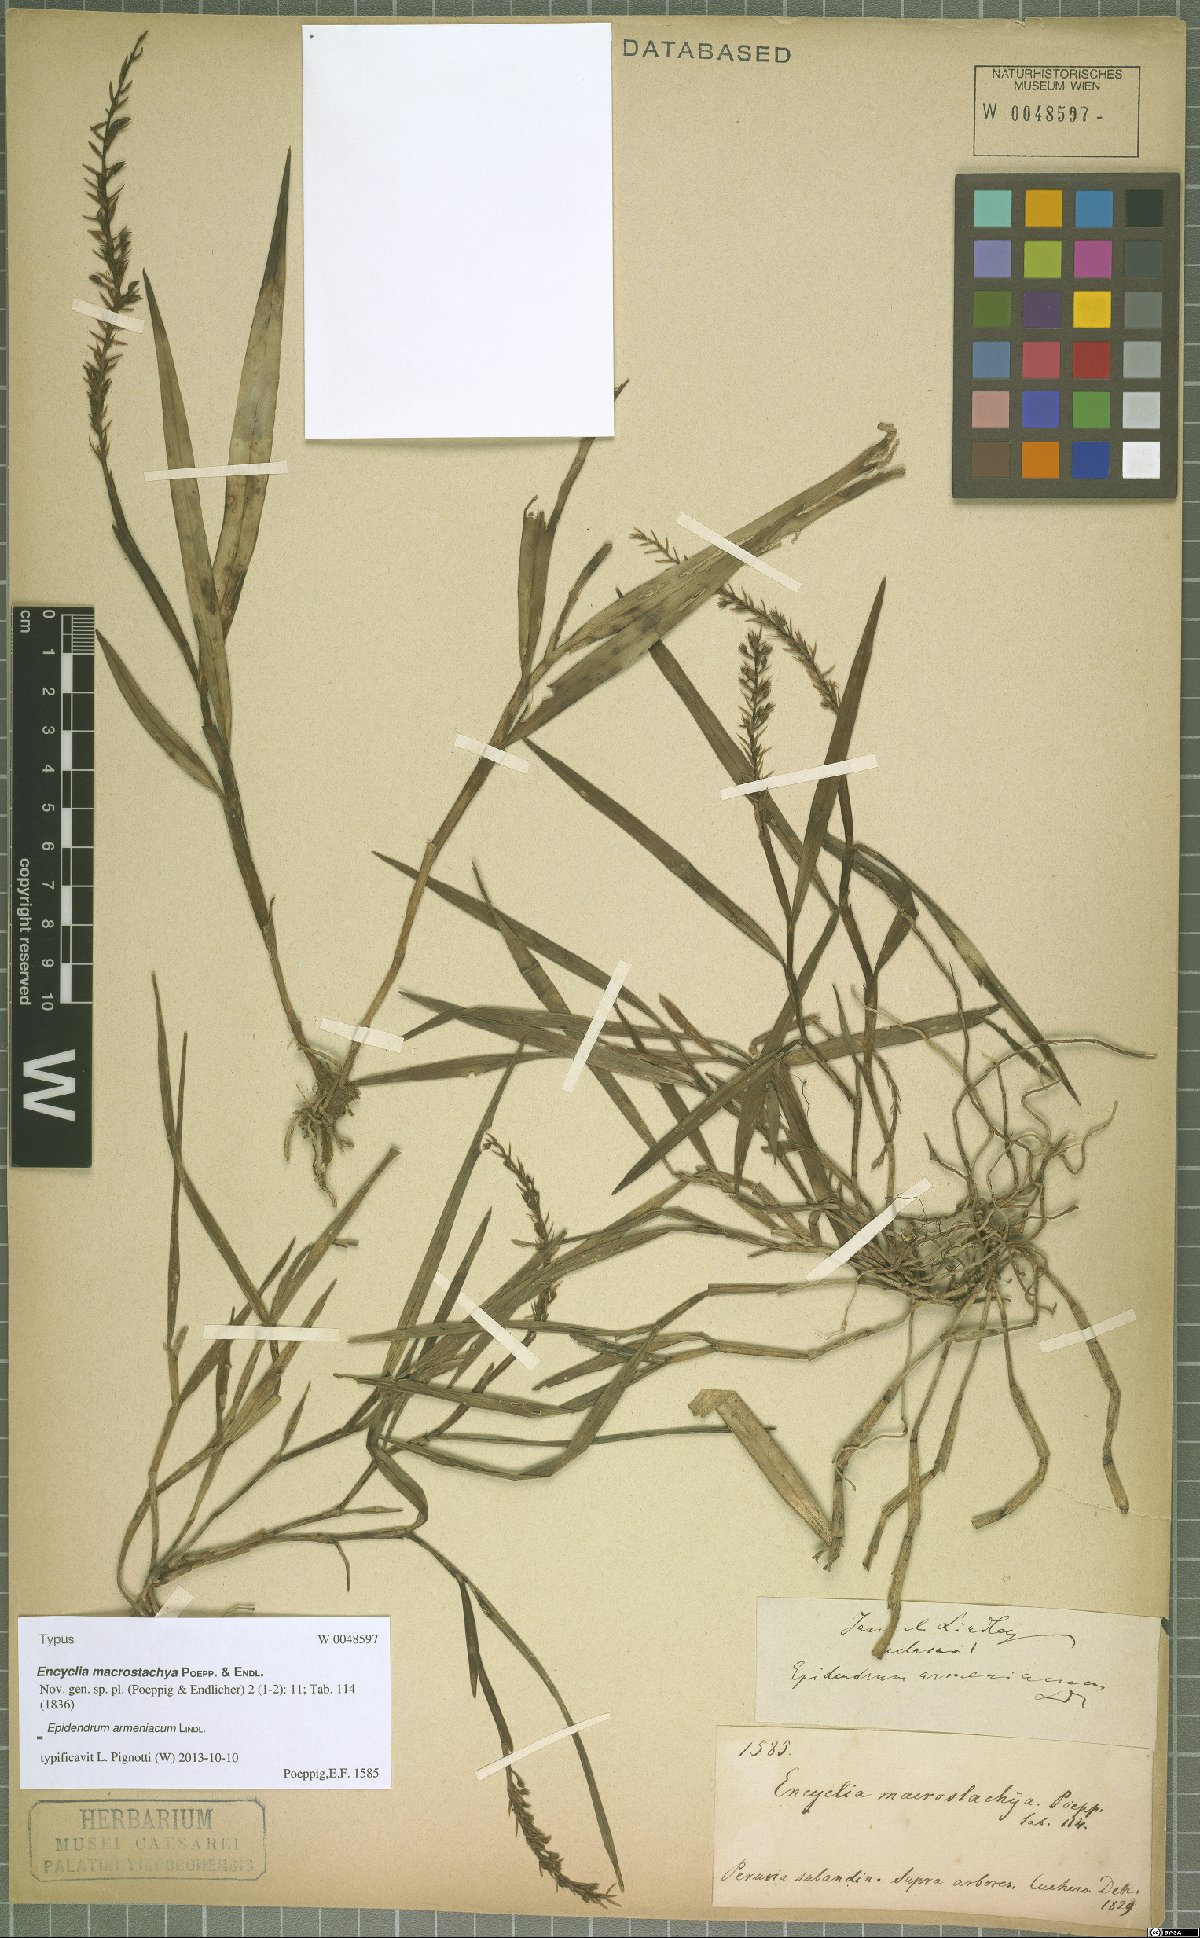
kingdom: Plantae
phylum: Tracheophyta
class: Liliopsida
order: Asparagales
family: Orchidaceae
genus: Epidendrum
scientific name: Epidendrum armeniacum
